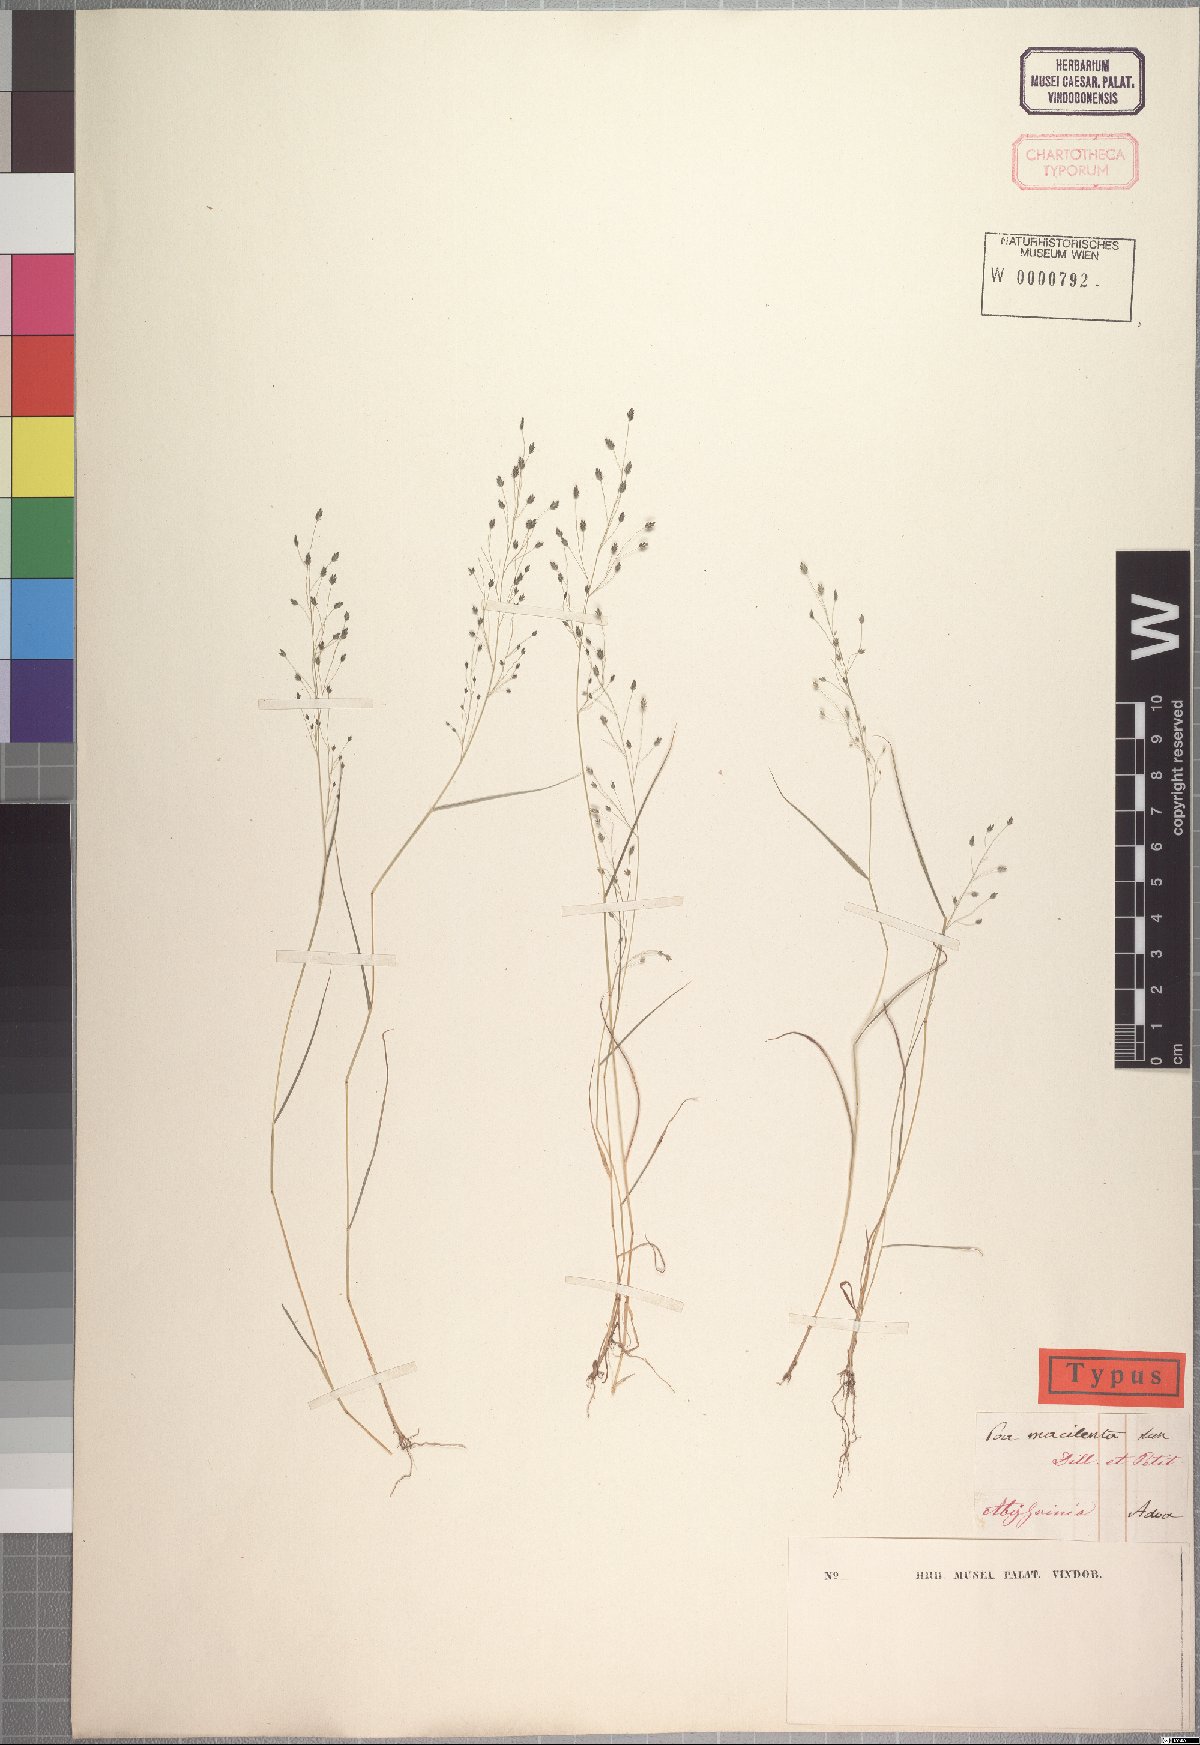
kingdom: Plantae
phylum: Tracheophyta
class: Liliopsida
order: Poales
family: Poaceae
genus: Eragrostis
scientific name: Eragrostis macilenta
